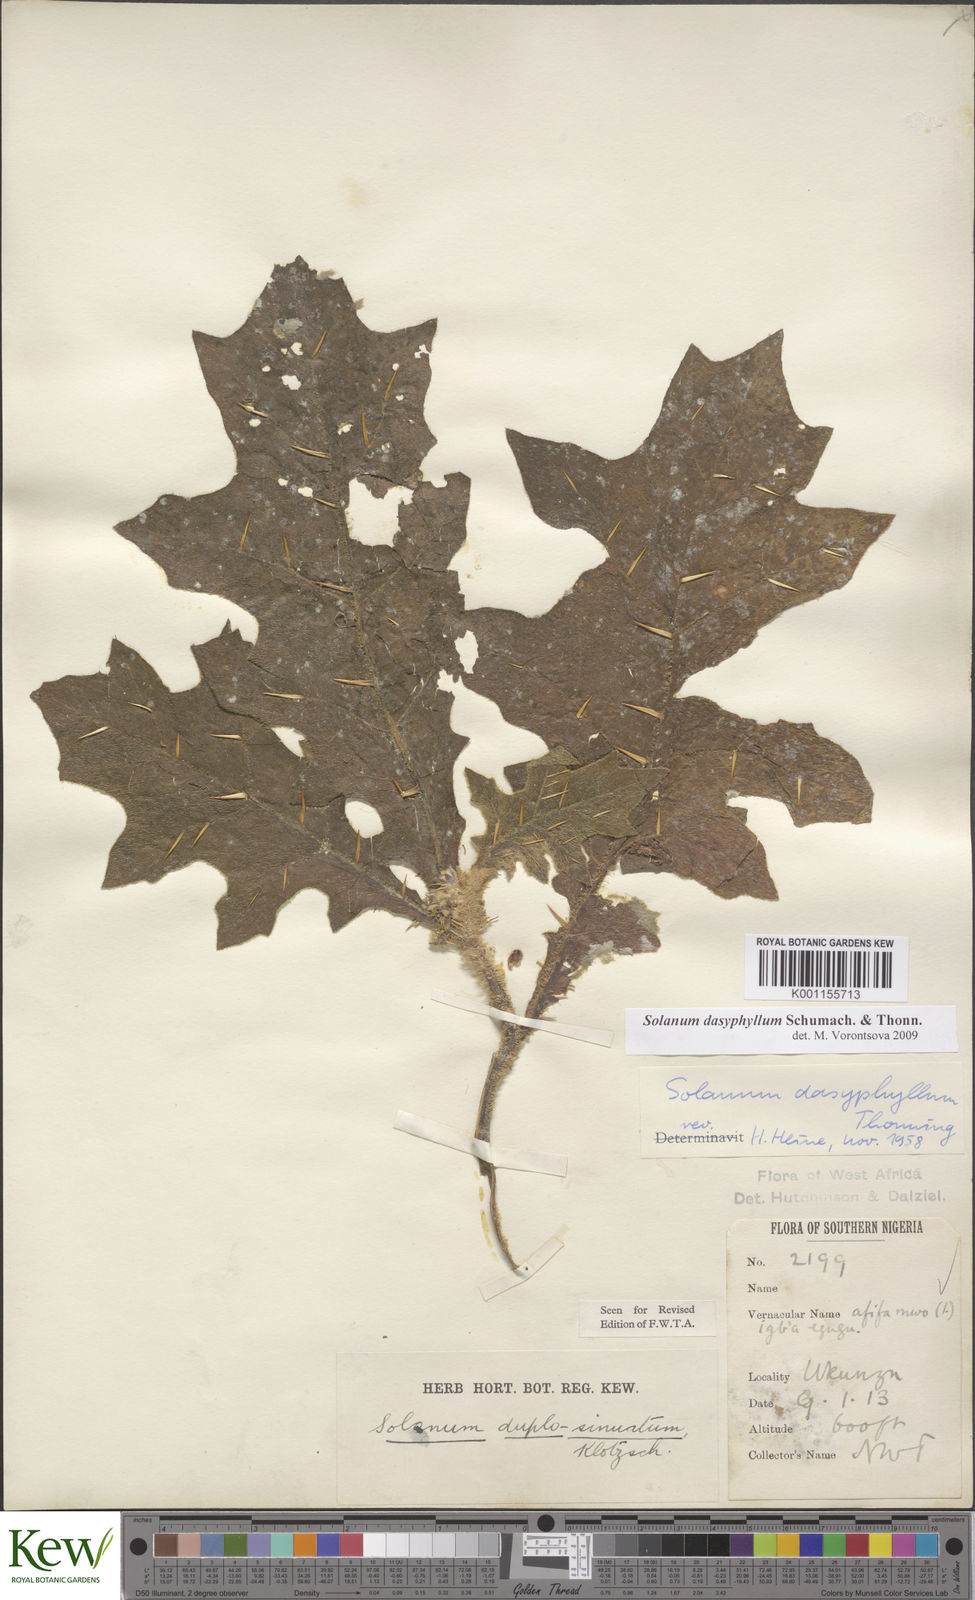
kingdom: Plantae
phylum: Tracheophyta
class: Magnoliopsida
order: Solanales
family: Solanaceae
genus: Solanum
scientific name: Solanum dasyphyllum
